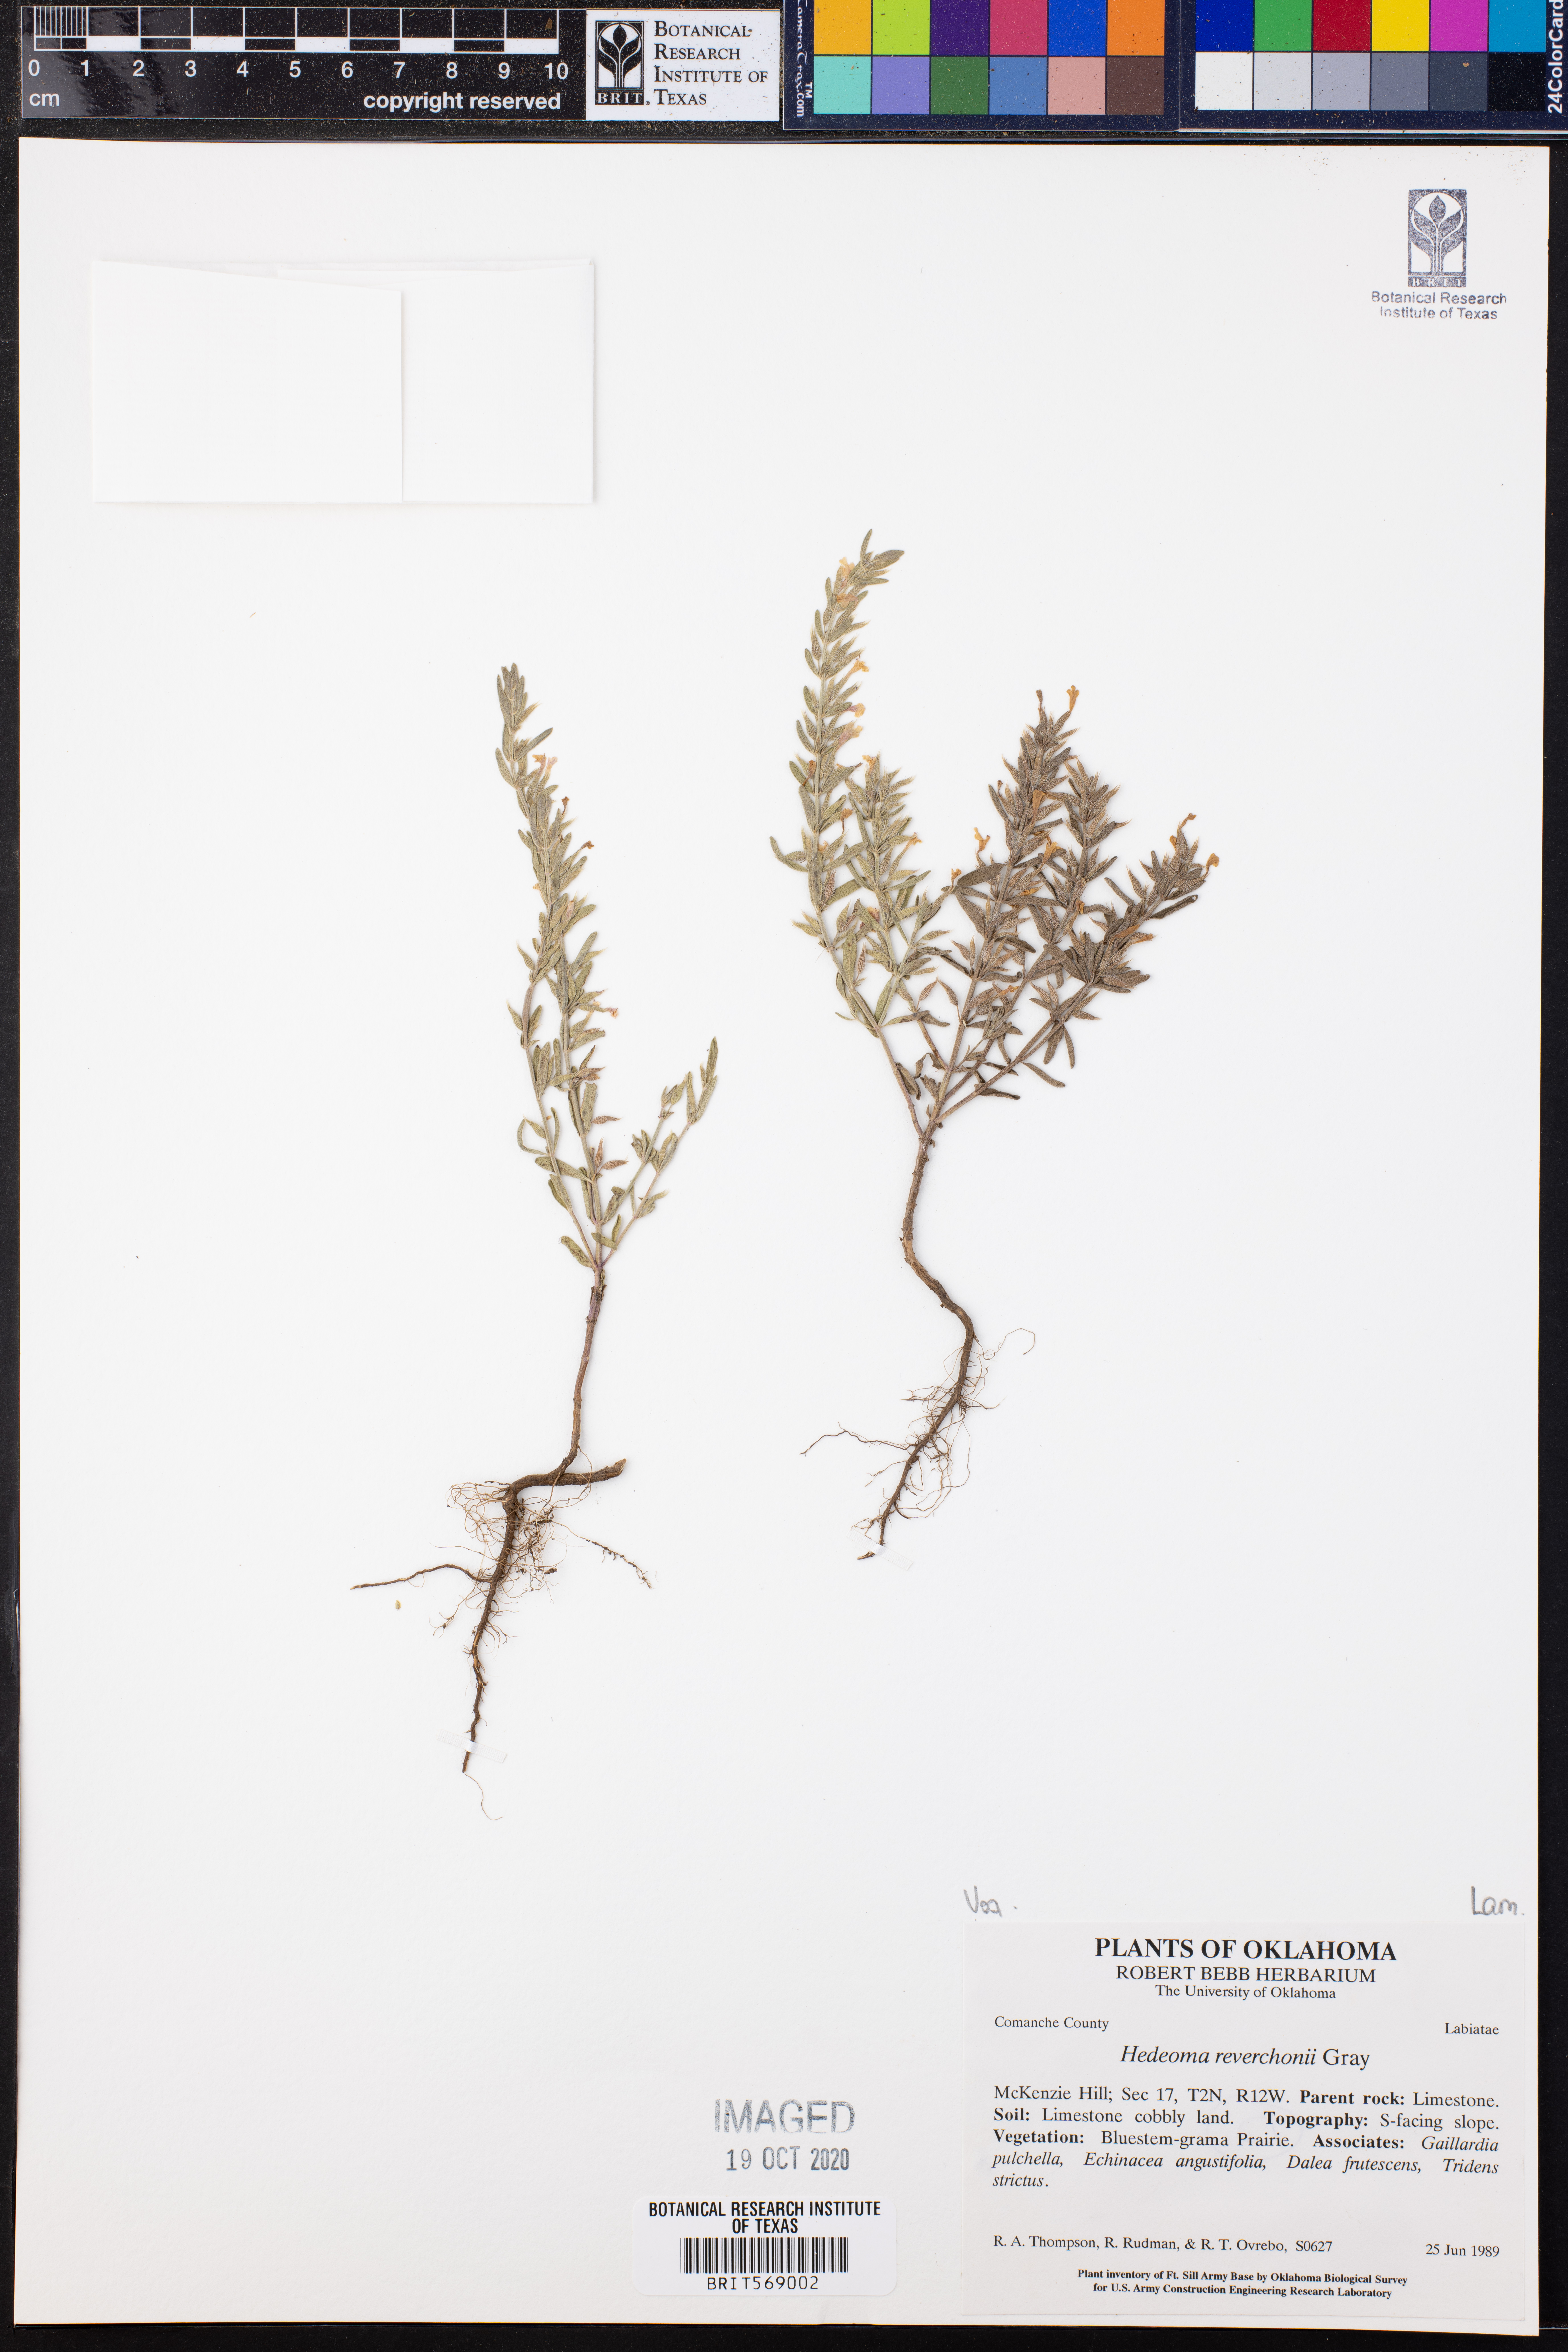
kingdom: Plantae
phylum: Tracheophyta
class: Magnoliopsida
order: Lamiales
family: Lamiaceae
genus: Hedeoma
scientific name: Hedeoma reverchonii
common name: Reverchon's false penny-royal
